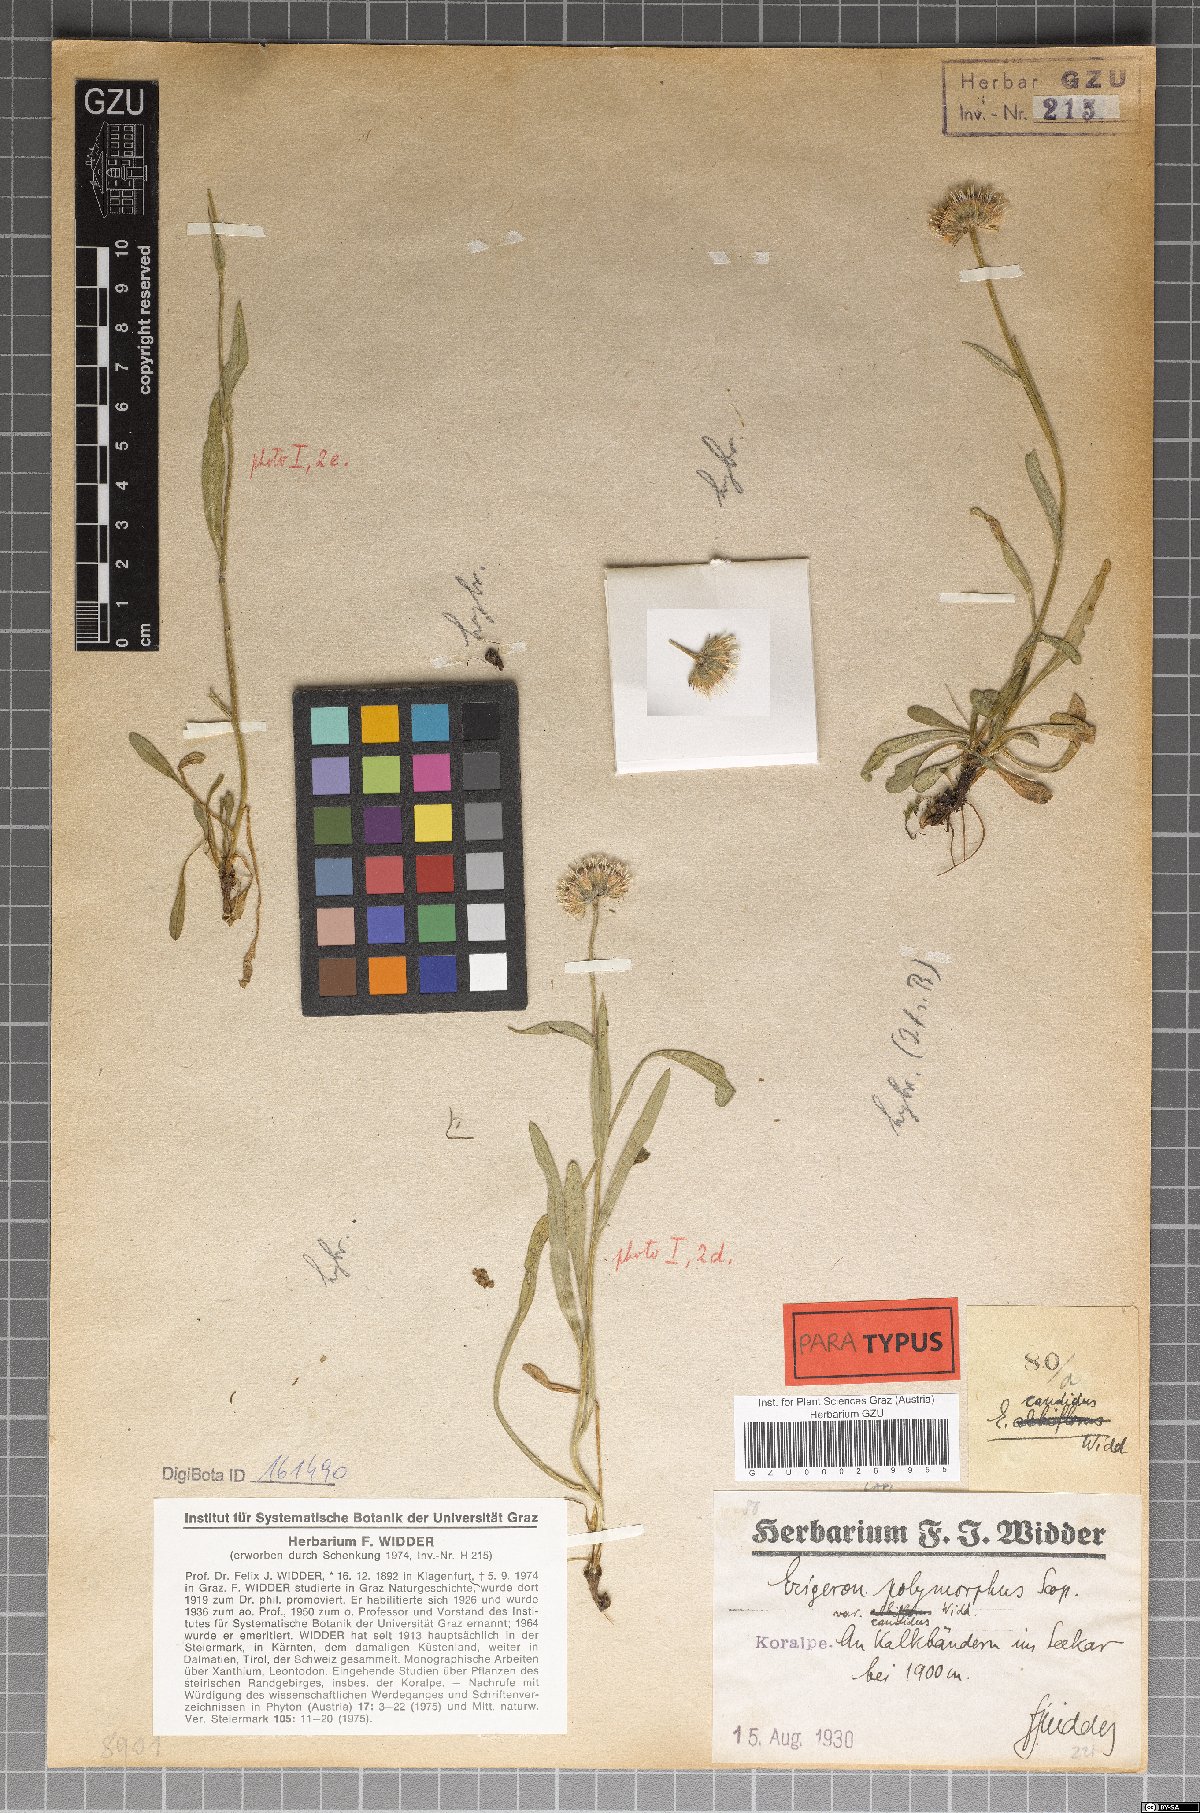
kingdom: Plantae
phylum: Tracheophyta
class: Magnoliopsida
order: Asterales
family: Asteraceae
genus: Erigeron
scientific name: Erigeron glabratus
